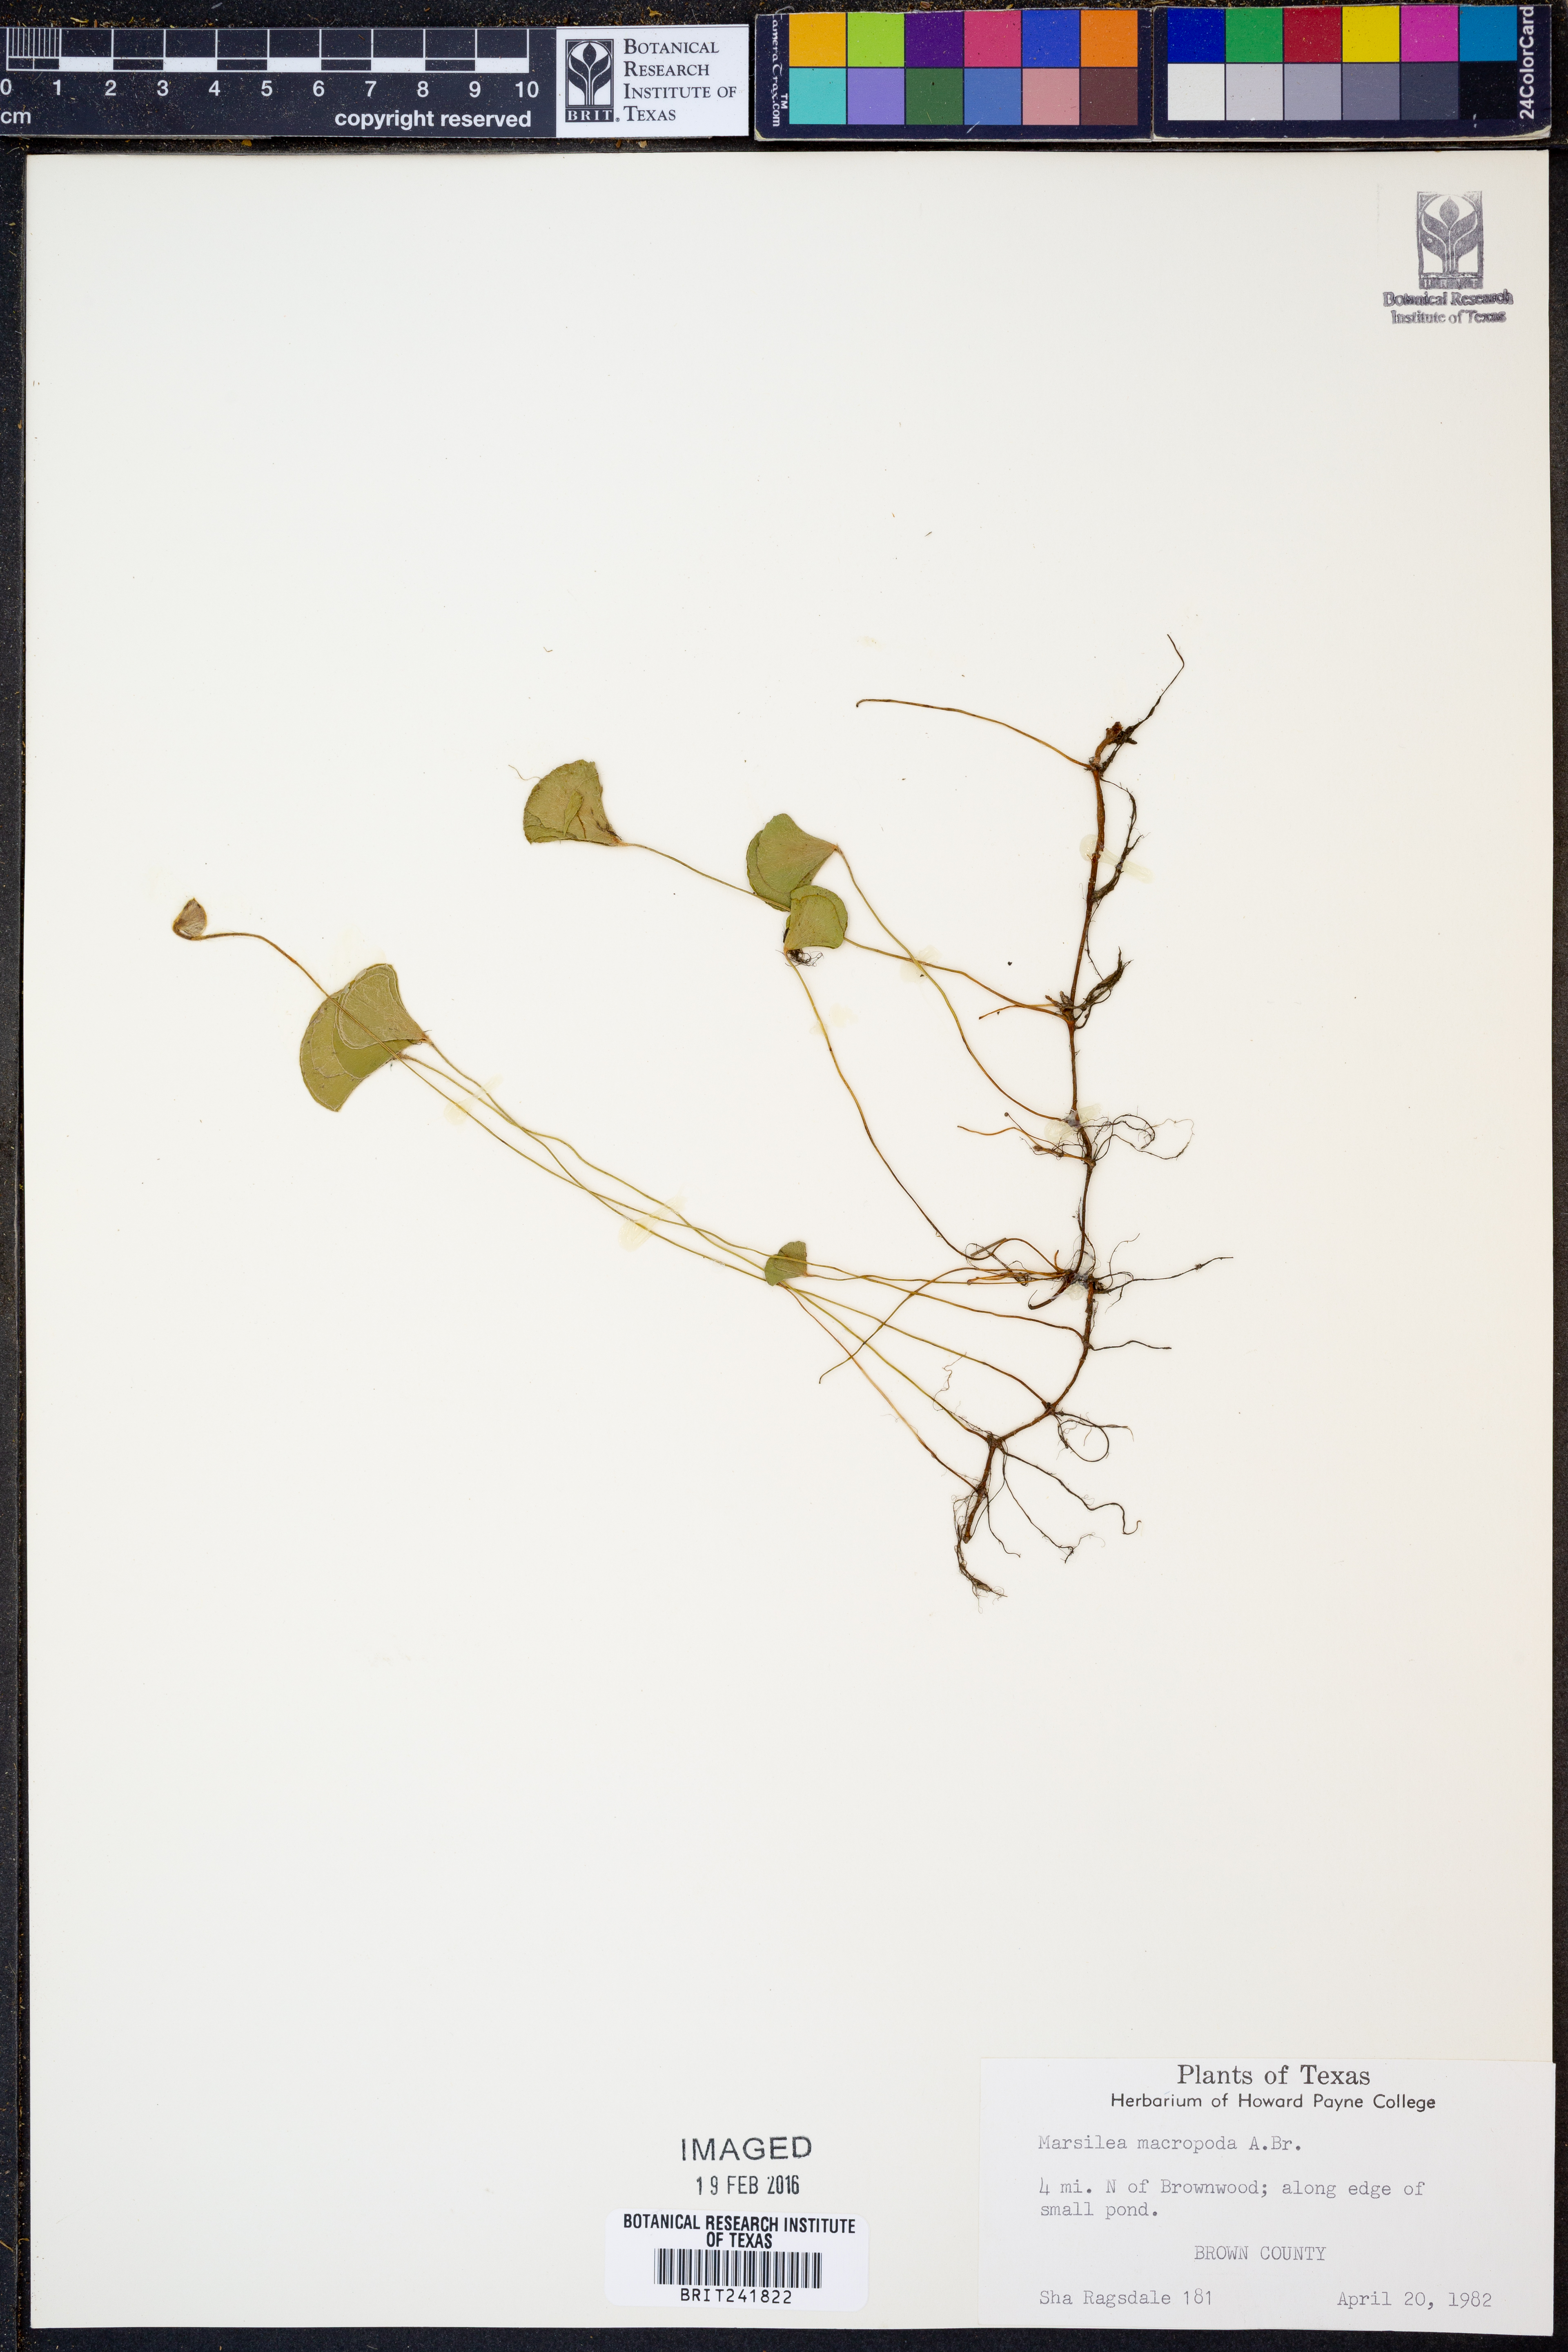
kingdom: Plantae
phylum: Tracheophyta
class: Polypodiopsida
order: Salviniales
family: Marsileaceae
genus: Marsilea
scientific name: Marsilea macropoda
